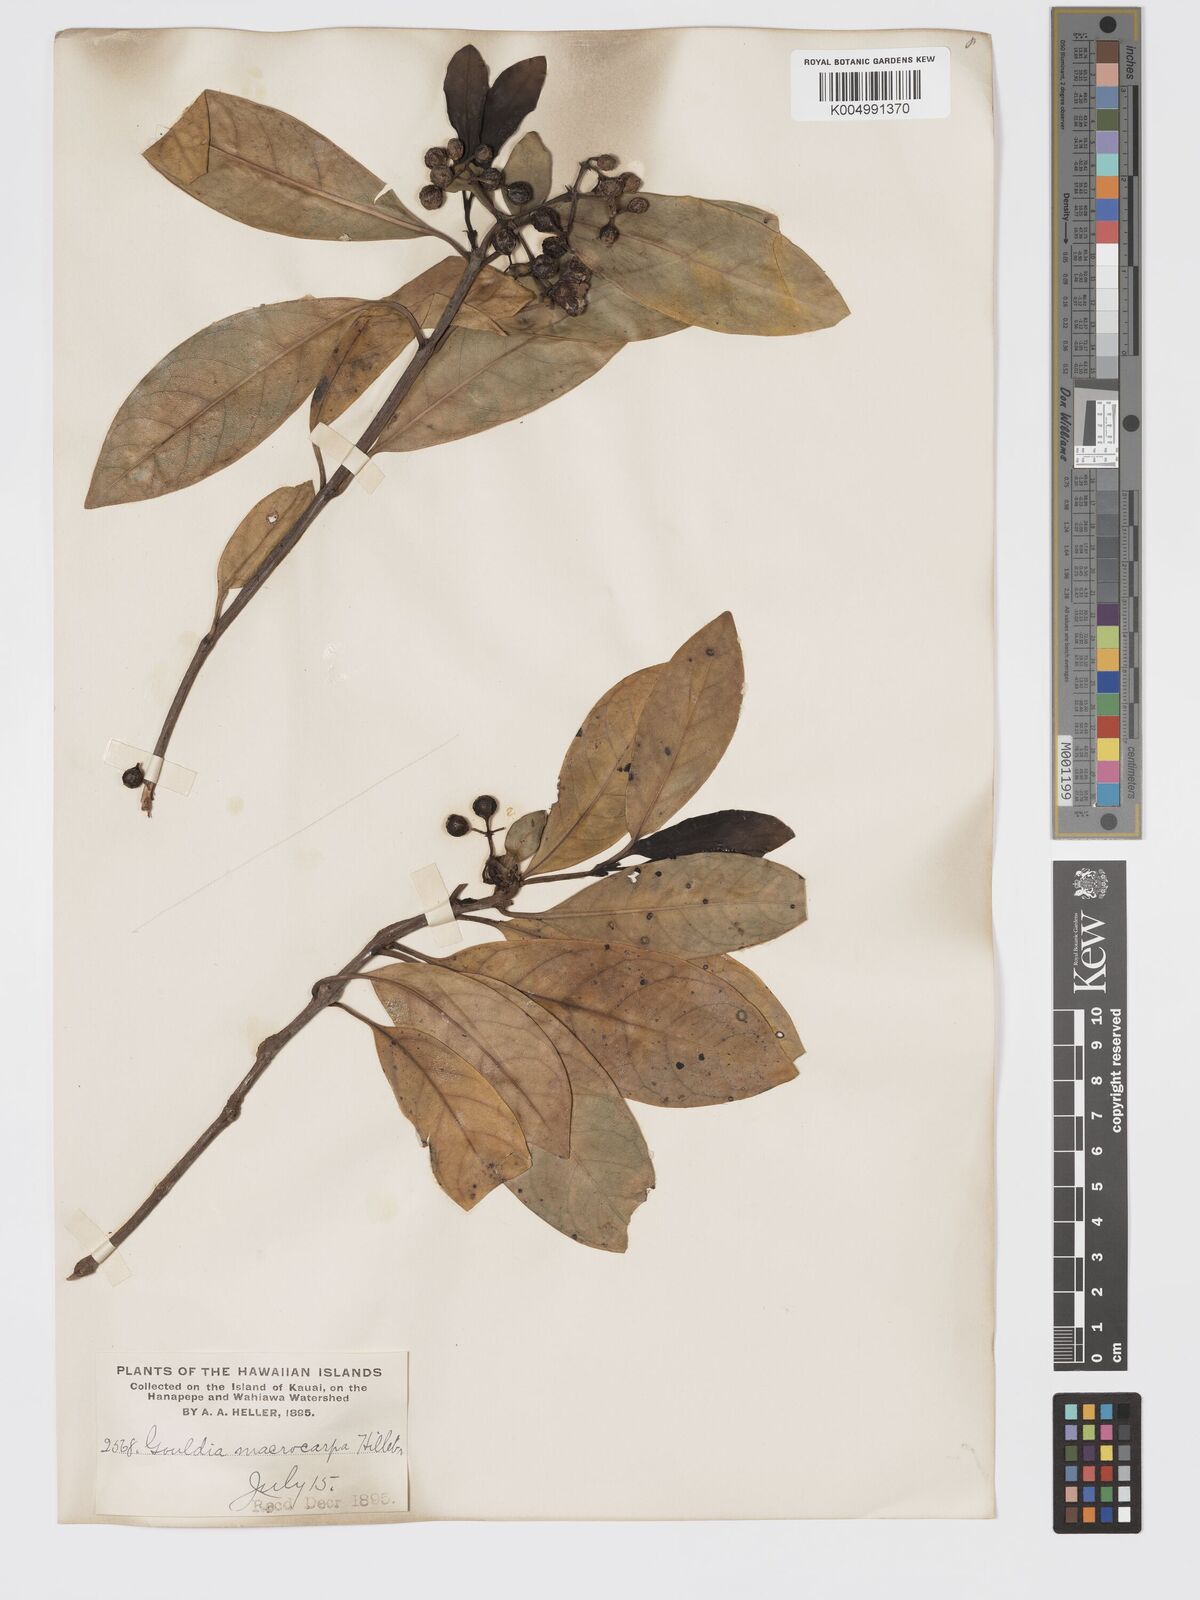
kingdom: Plantae
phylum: Tracheophyta
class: Magnoliopsida
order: Gentianales
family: Rubiaceae
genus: Kadua
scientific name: Kadua affinis
